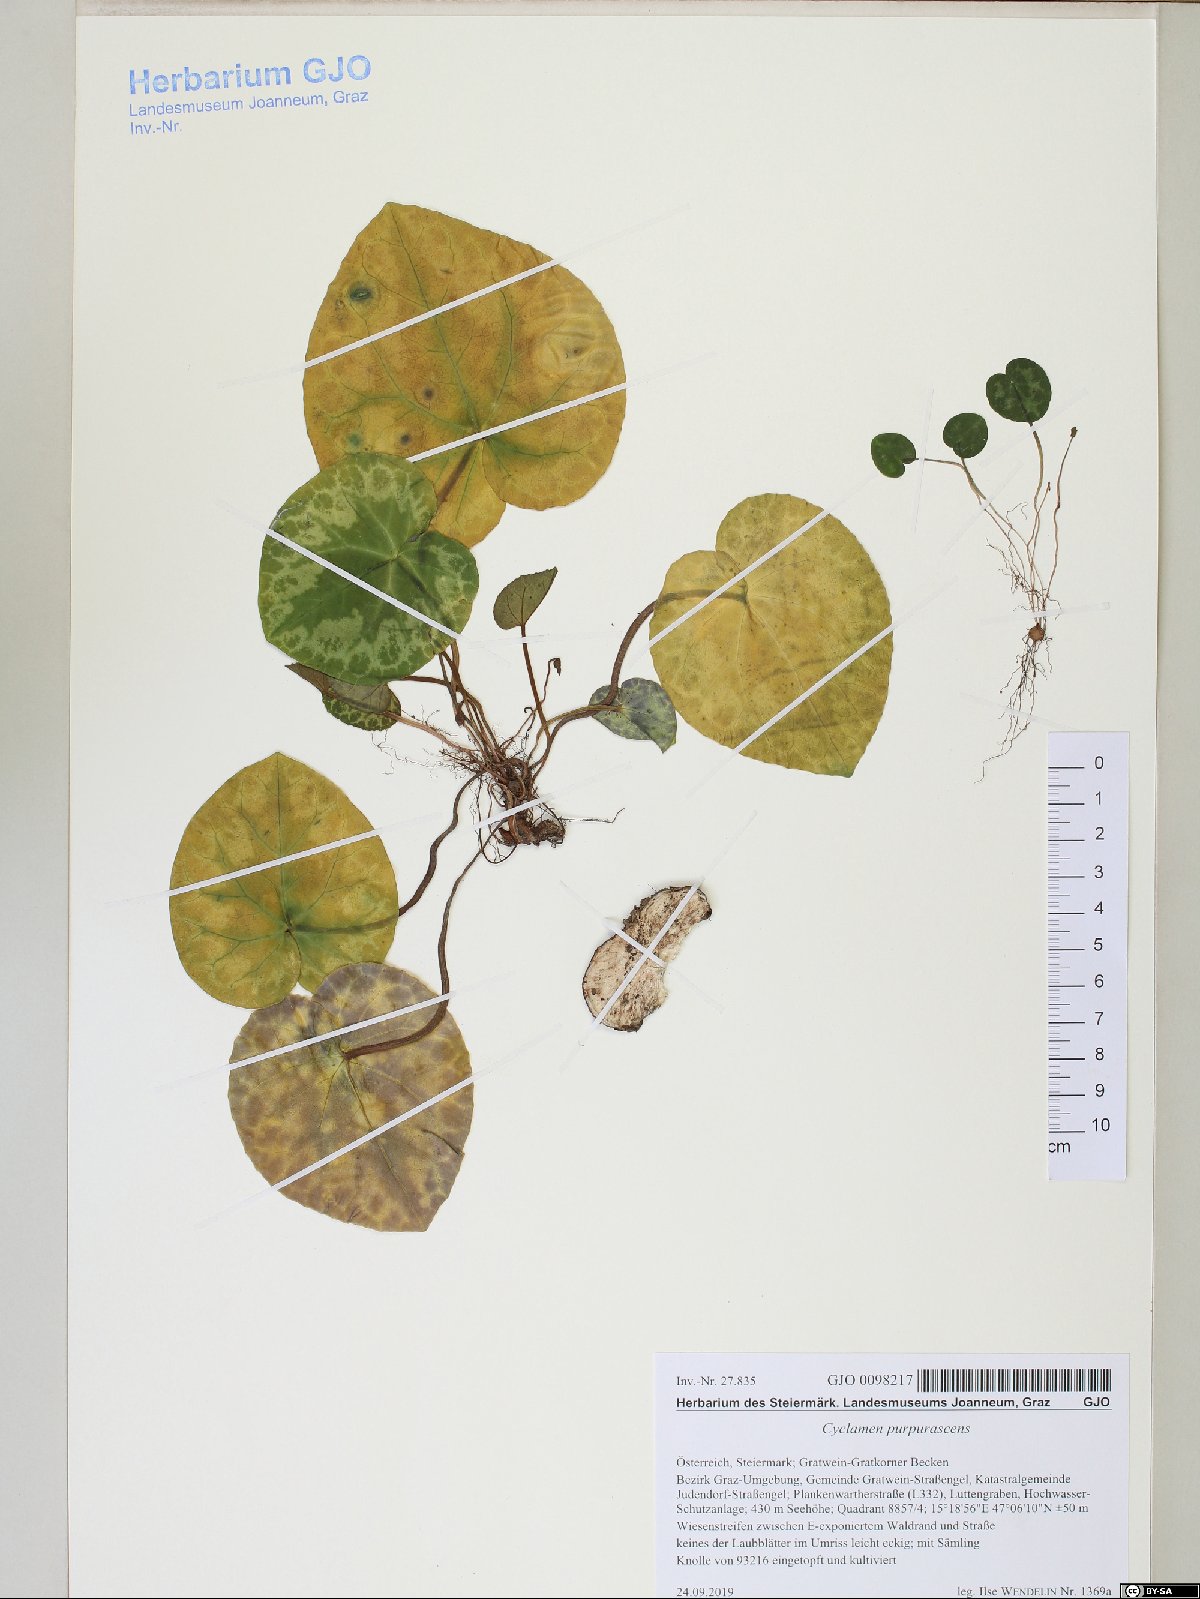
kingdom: Plantae
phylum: Tracheophyta
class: Magnoliopsida
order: Ericales
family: Primulaceae
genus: Cyclamen
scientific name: Cyclamen purpurascens
